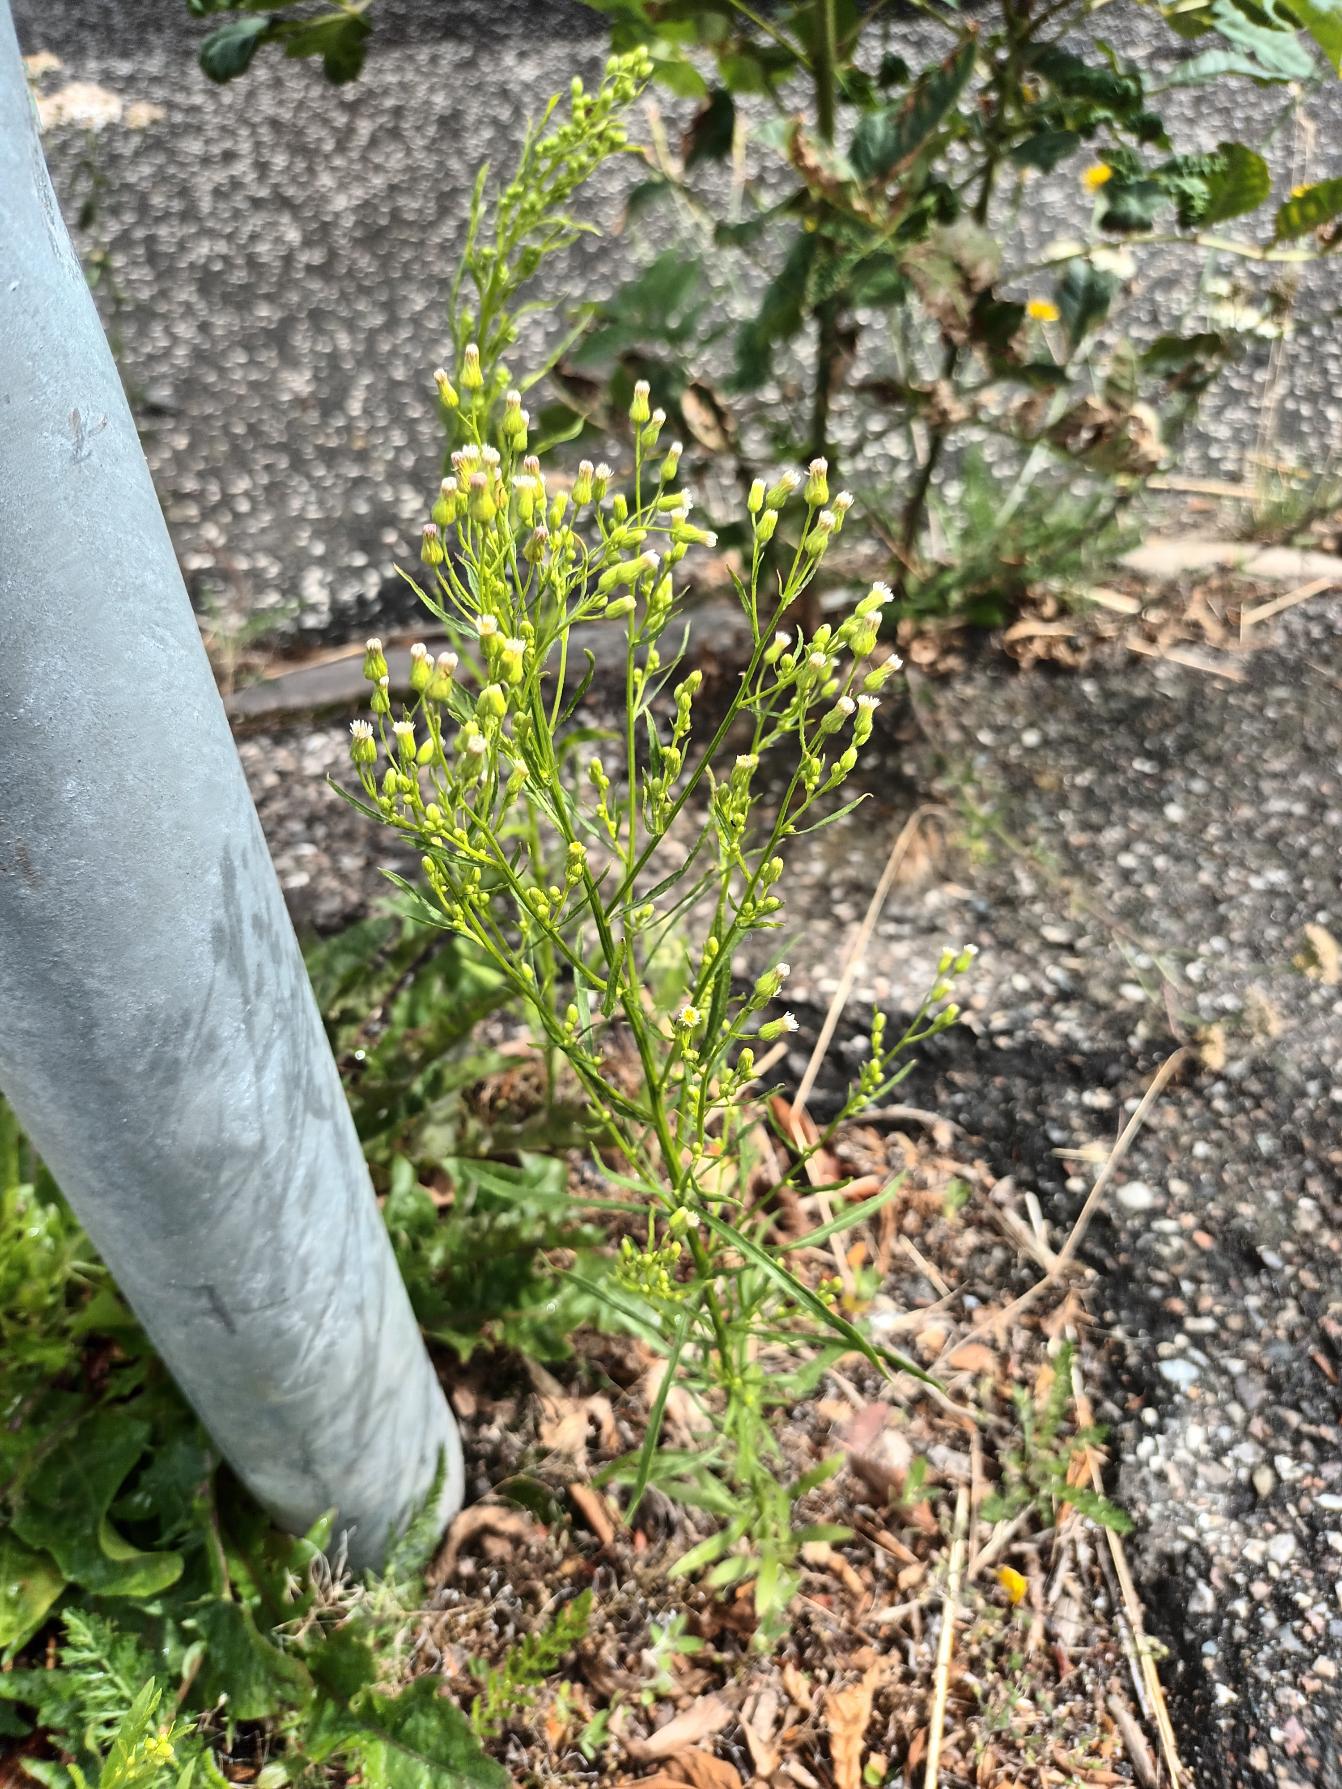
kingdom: Plantae
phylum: Tracheophyta
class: Magnoliopsida
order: Asterales
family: Asteraceae
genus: Erigeron
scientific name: Erigeron canadensis
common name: Kanadisk bakkestjerne
